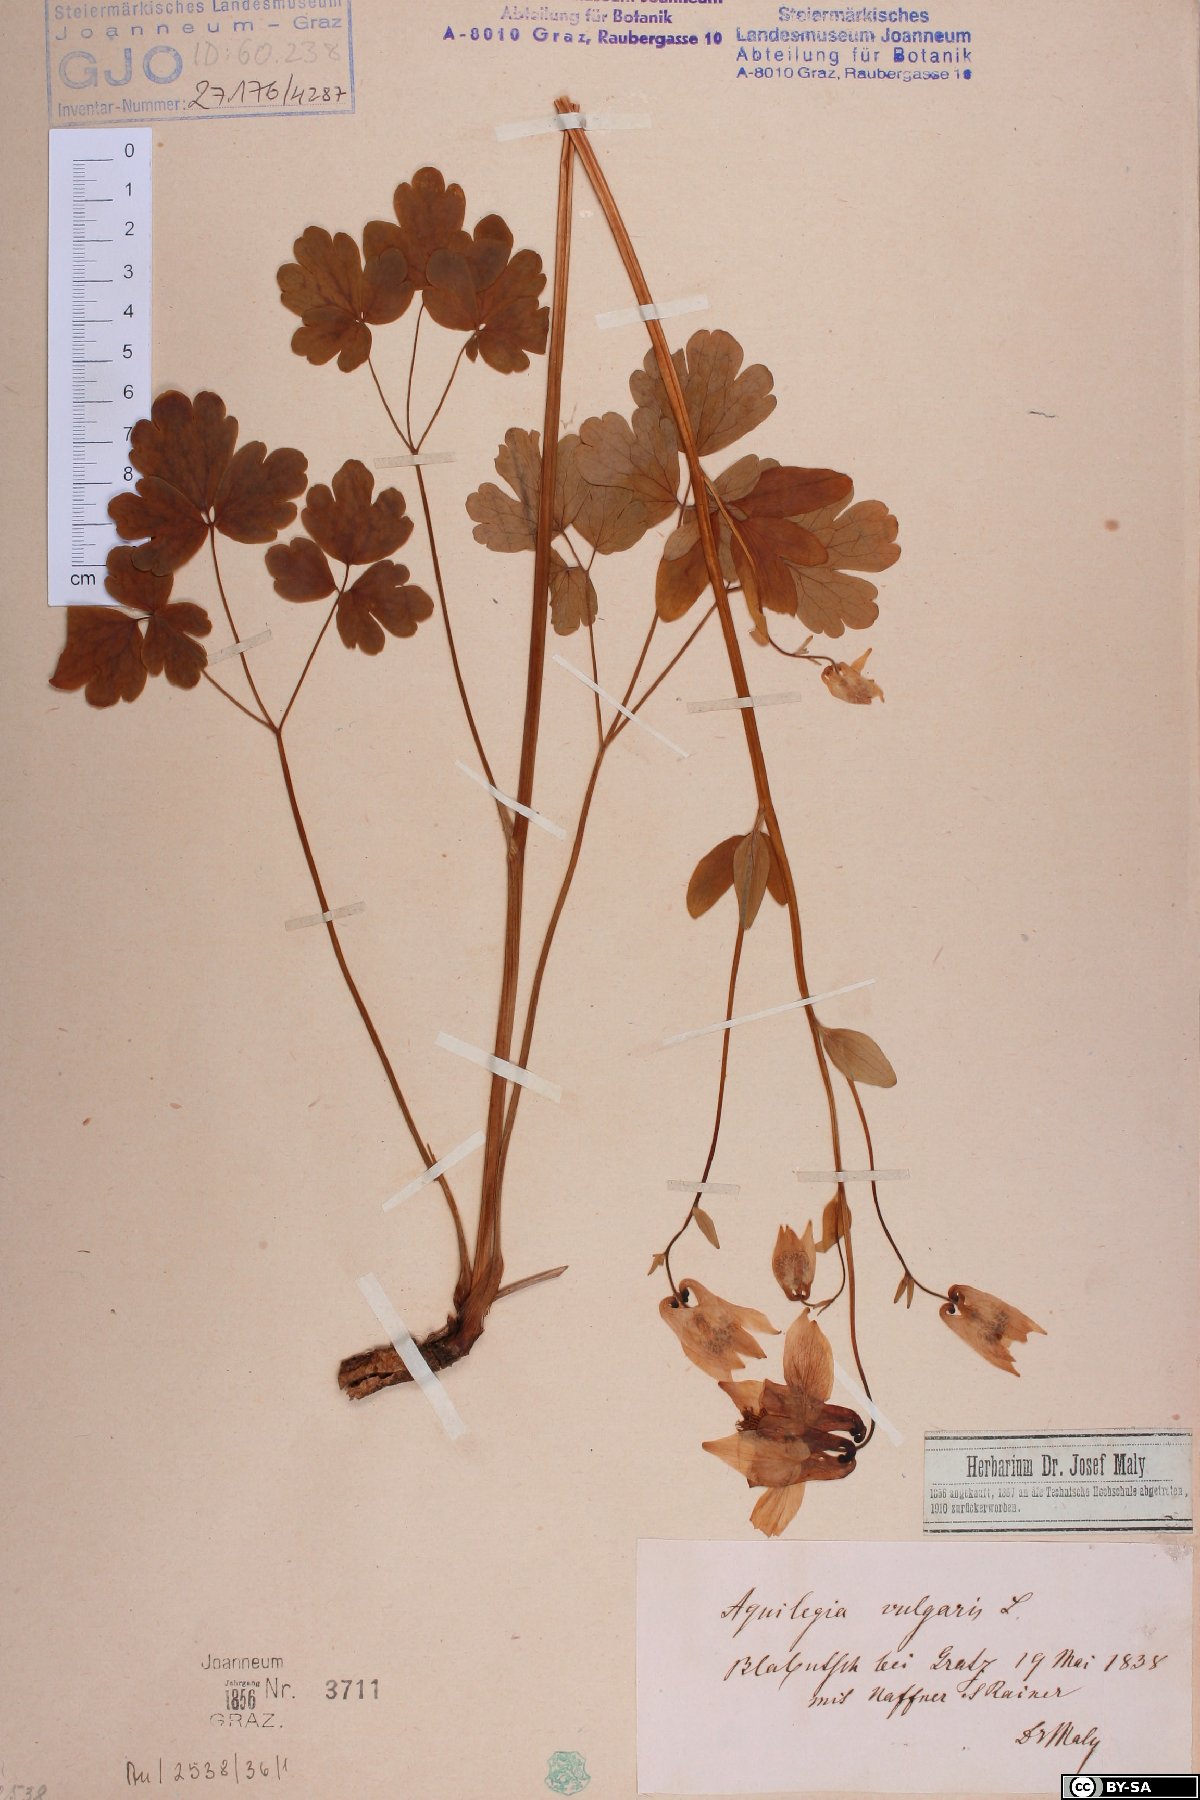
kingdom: Plantae
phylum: Tracheophyta
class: Magnoliopsida
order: Ranunculales
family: Ranunculaceae
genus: Aquilegia
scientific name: Aquilegia vulgaris
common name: Columbine
